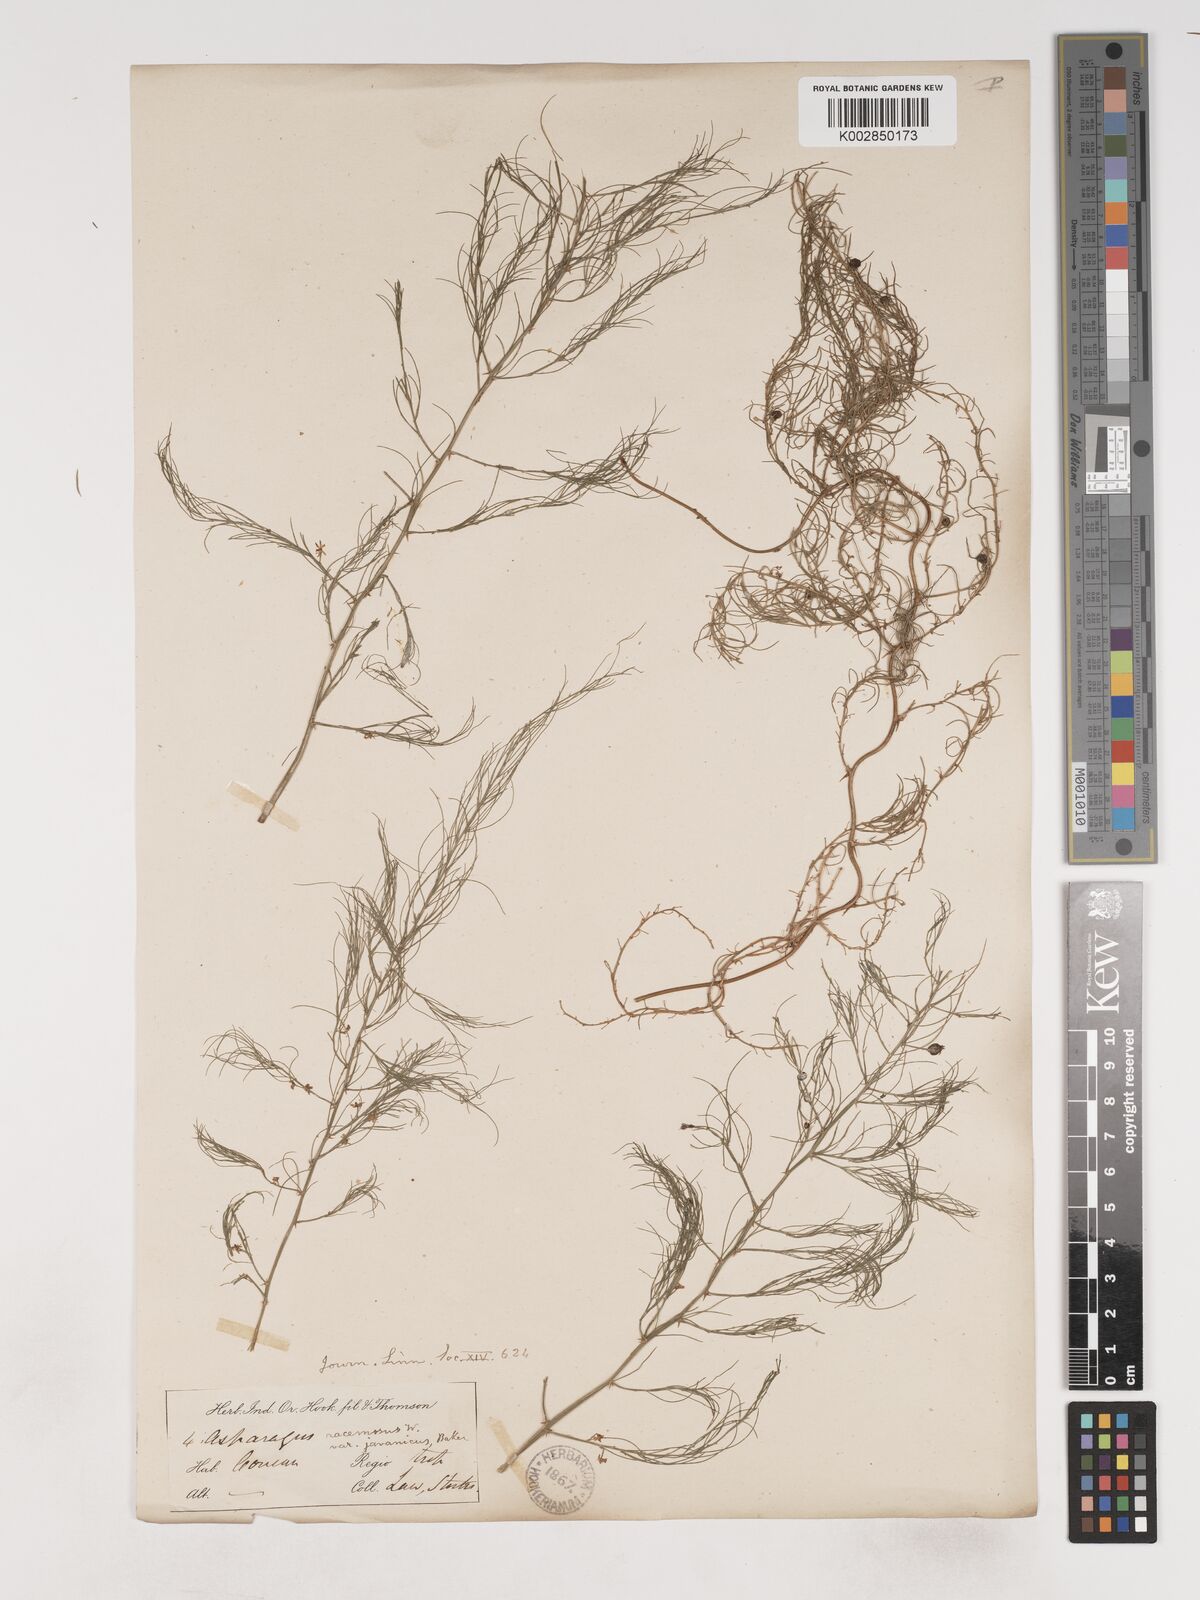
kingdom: Plantae
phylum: Tracheophyta
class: Liliopsida
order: Asparagales
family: Asparagaceae
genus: Asparagus
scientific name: Asparagus racemosus
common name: Asparagus-fern
